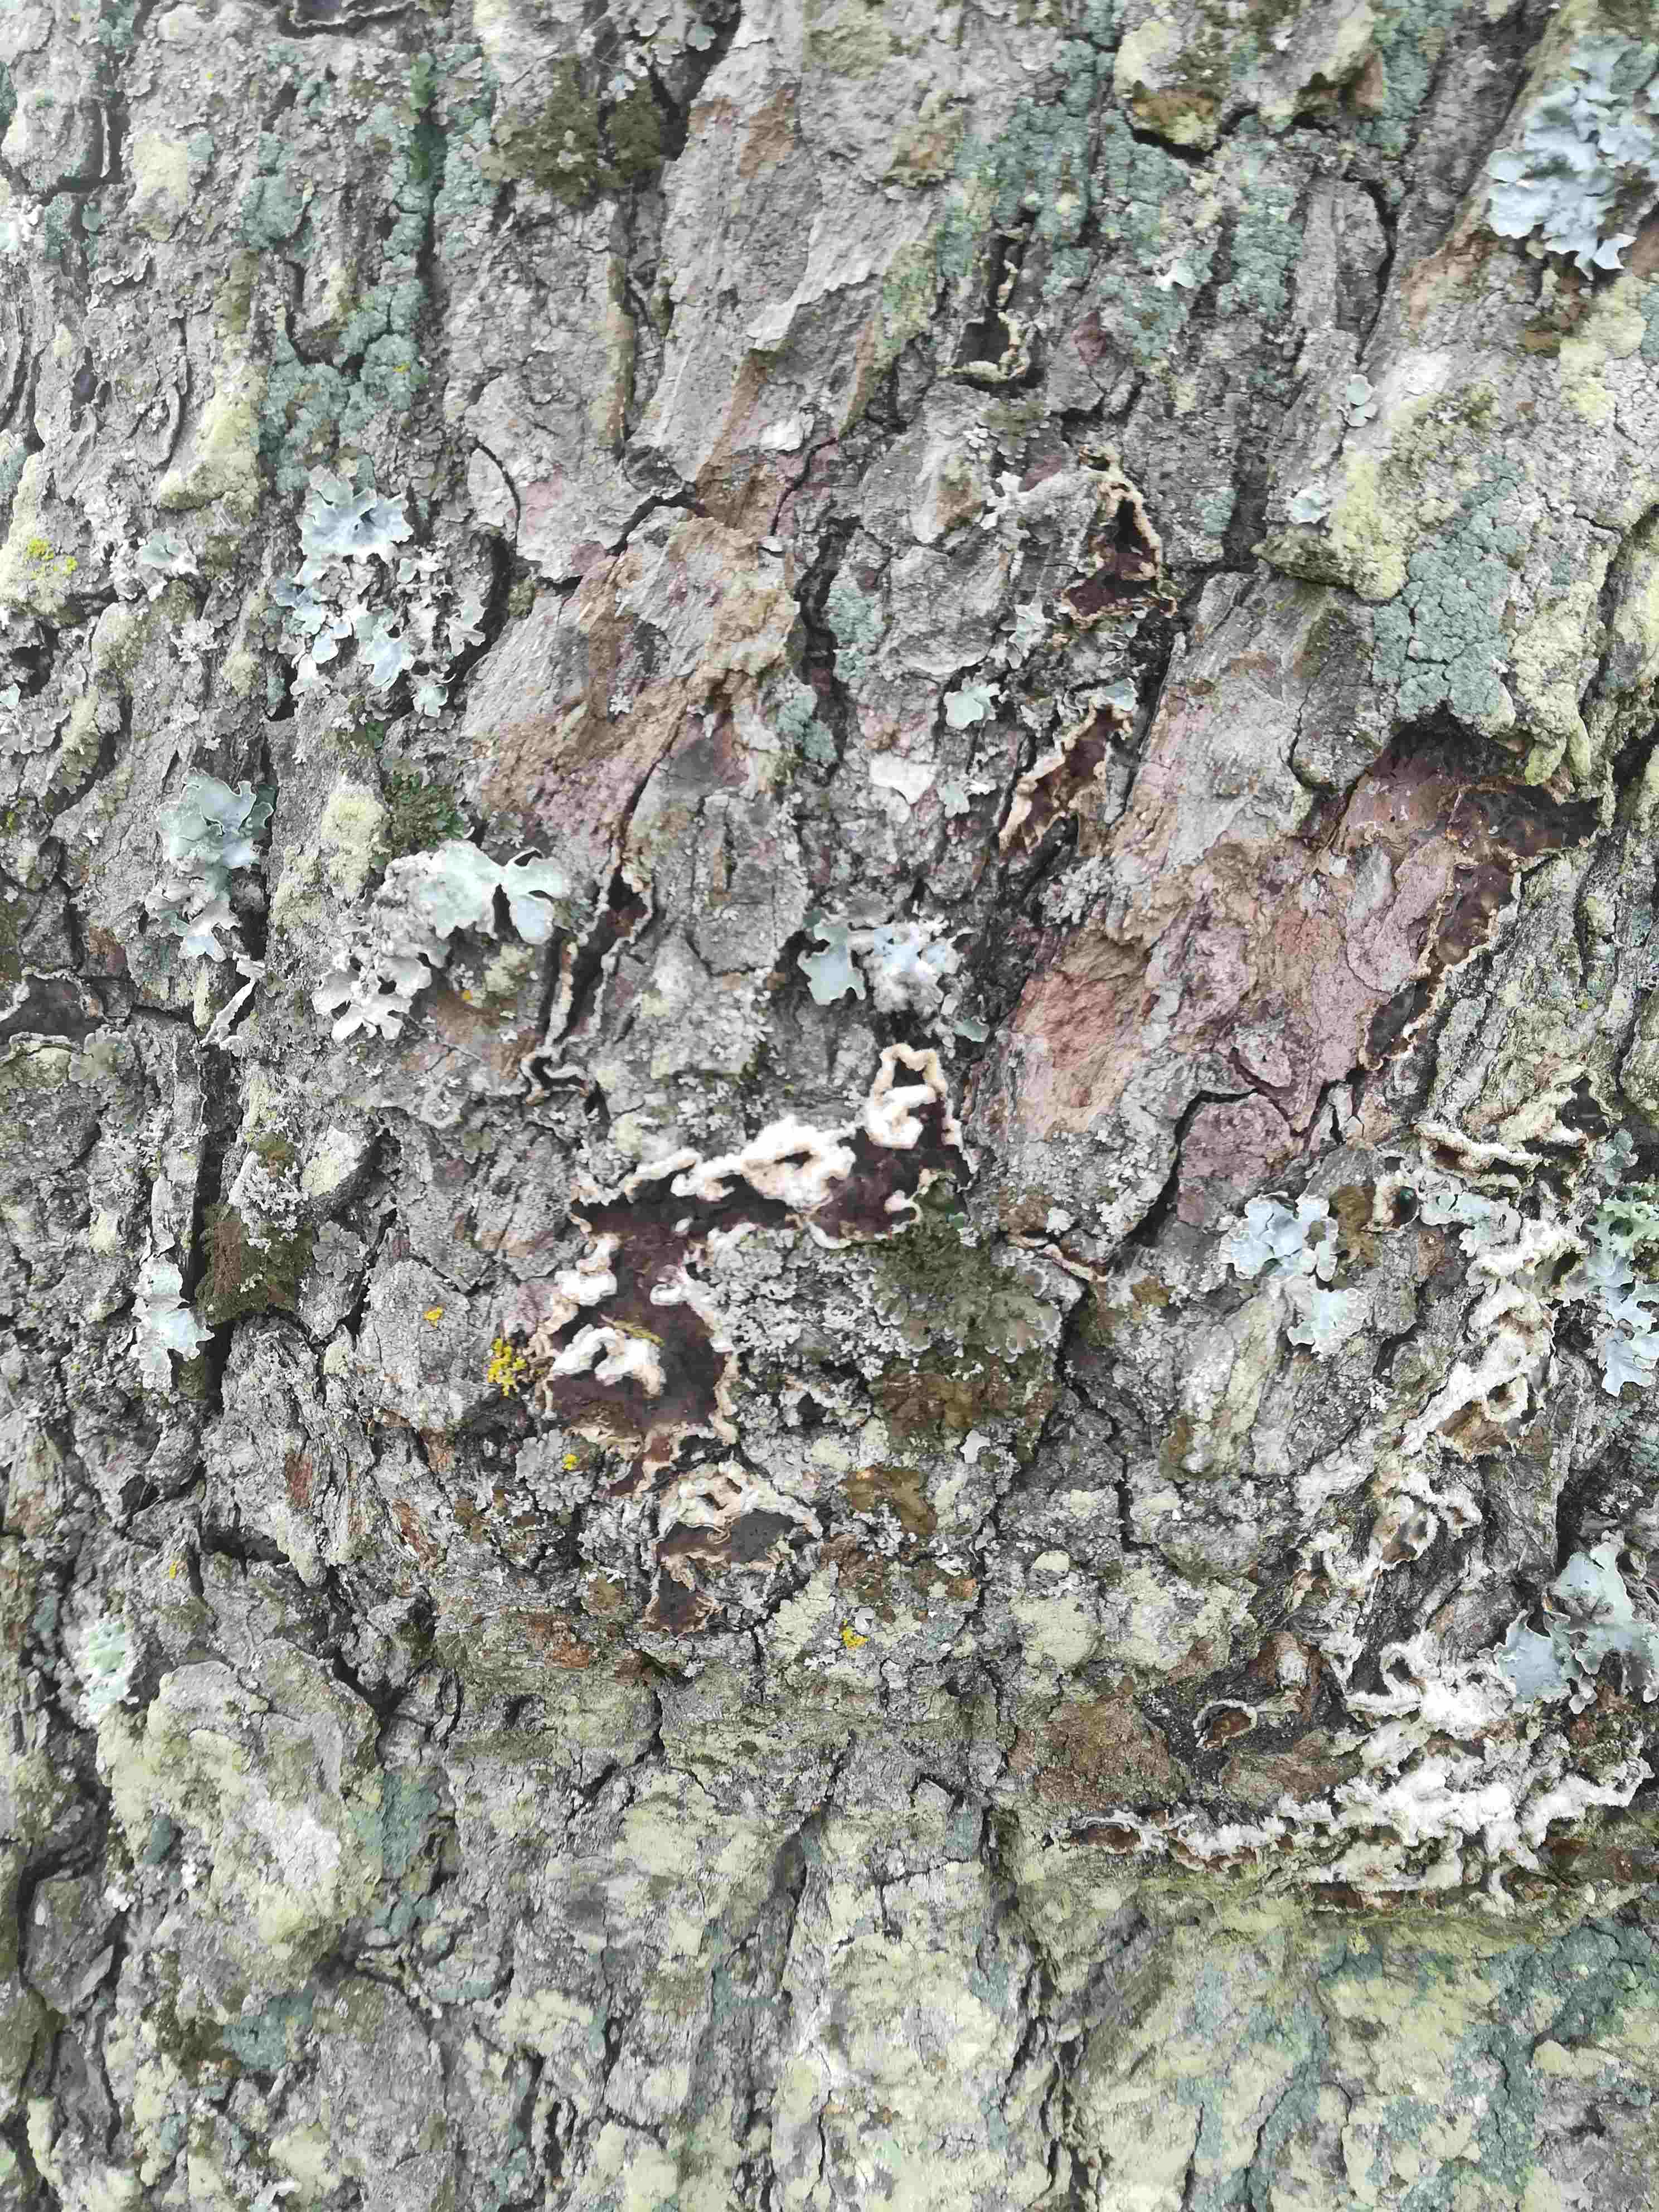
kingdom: Fungi
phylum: Basidiomycota
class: Agaricomycetes
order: Agaricales
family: Cyphellaceae
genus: Chondrostereum
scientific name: Chondrostereum purpureum
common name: purpurlædersvamp
